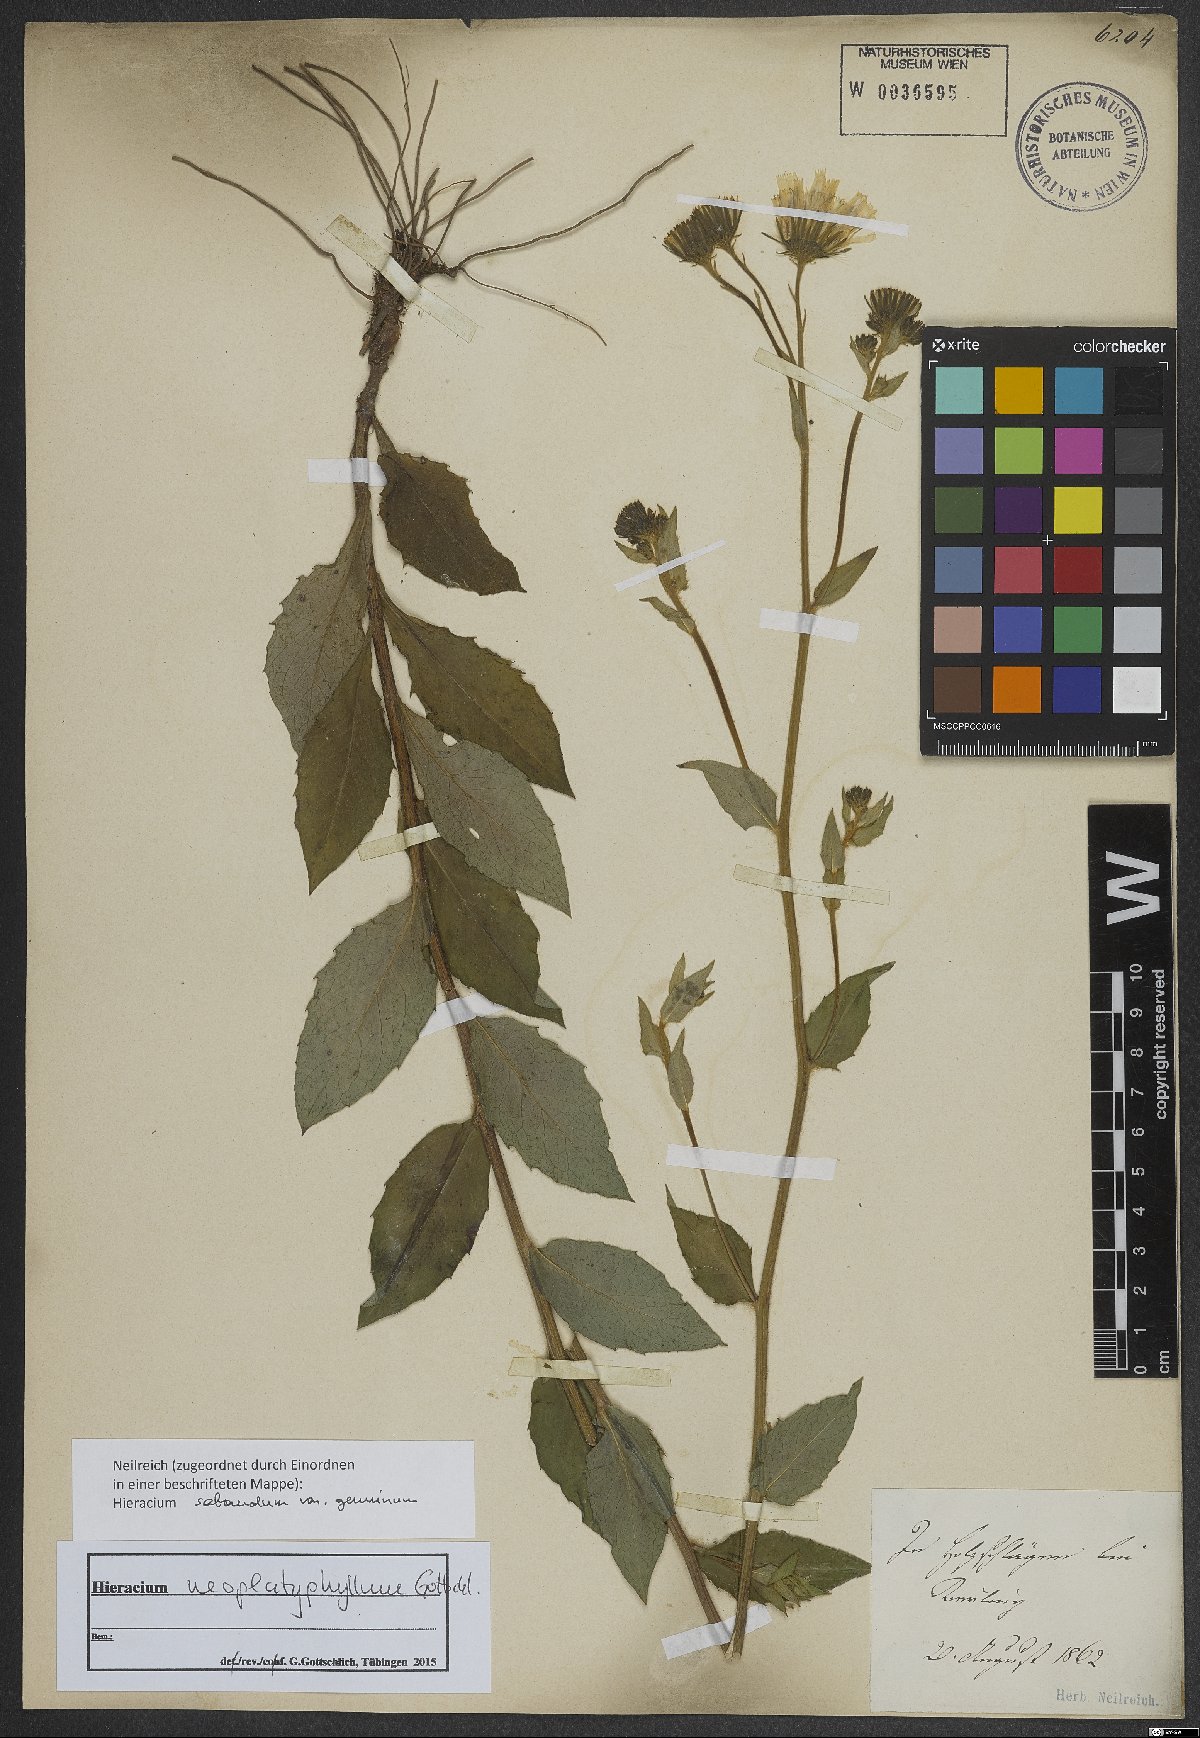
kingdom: Plantae
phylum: Tracheophyta
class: Magnoliopsida
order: Asterales
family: Asteraceae
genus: Hieracium
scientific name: Hieracium neoplatyphyllum
